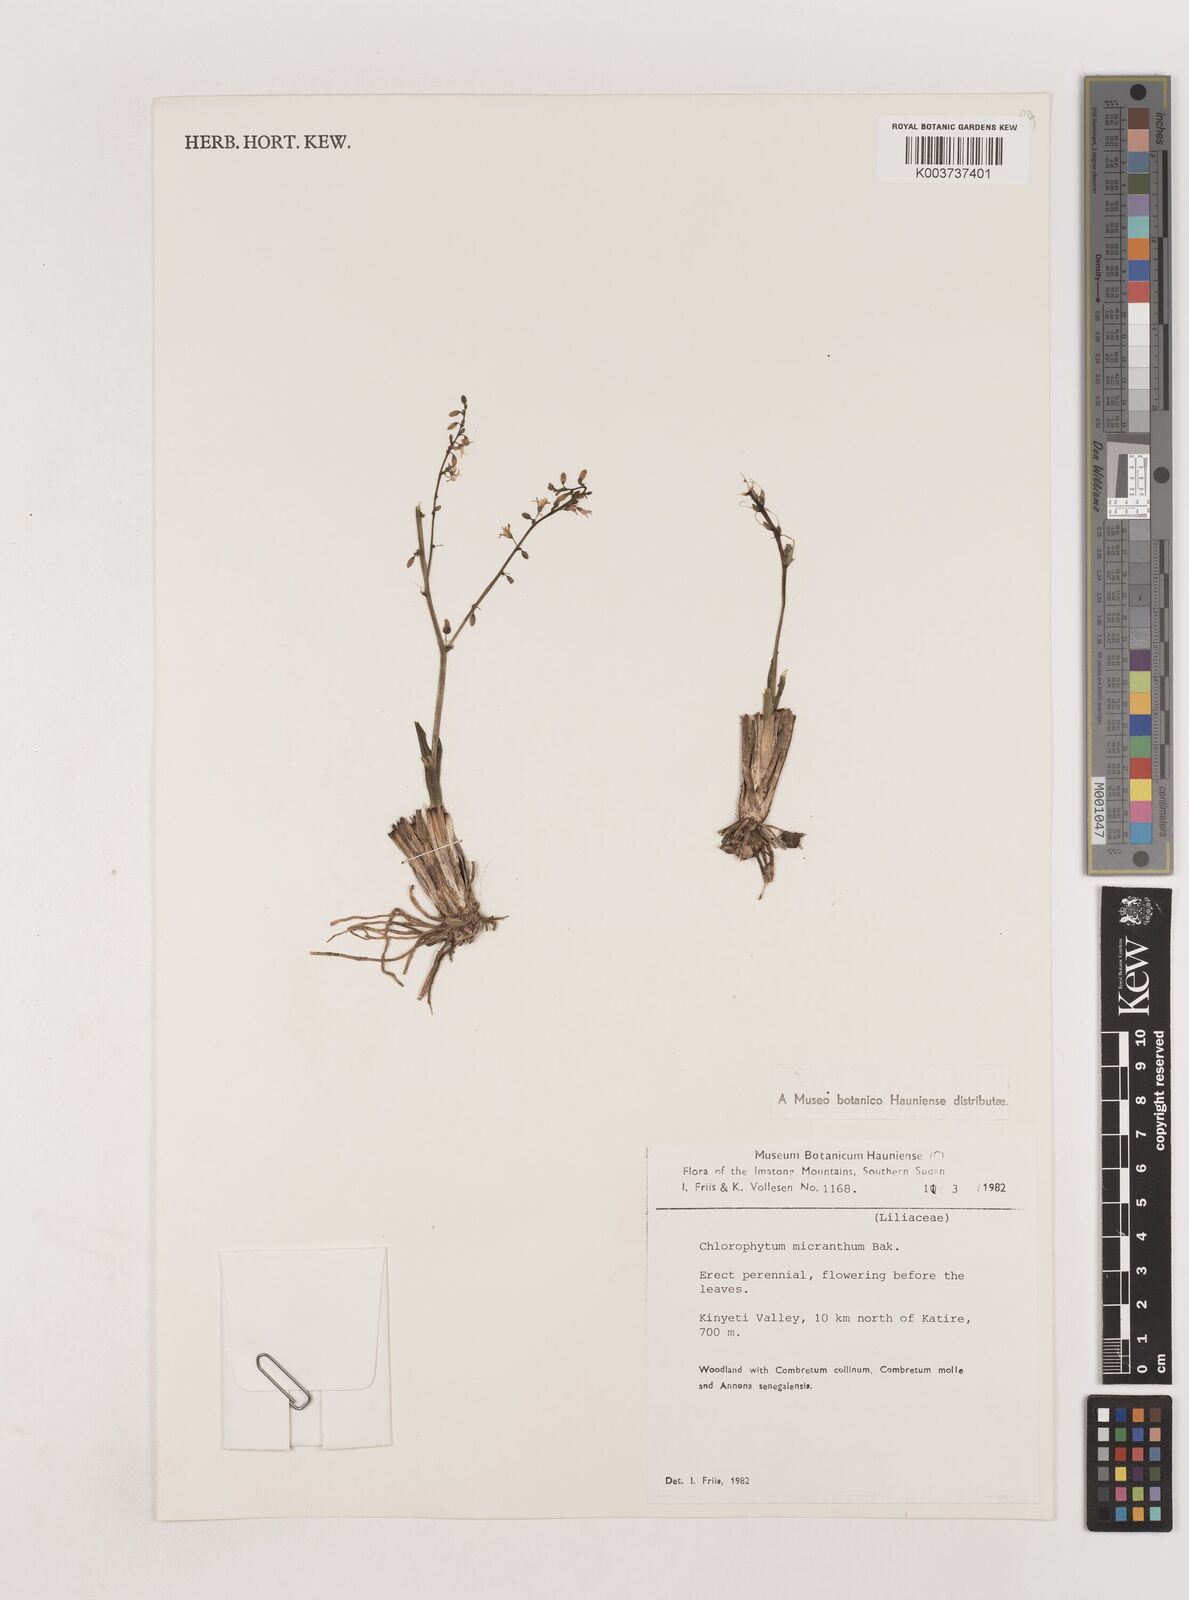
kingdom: Plantae
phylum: Tracheophyta
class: Liliopsida
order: Asparagales
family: Asparagaceae
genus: Chlorophytum
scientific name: Chlorophytum gallabatense
